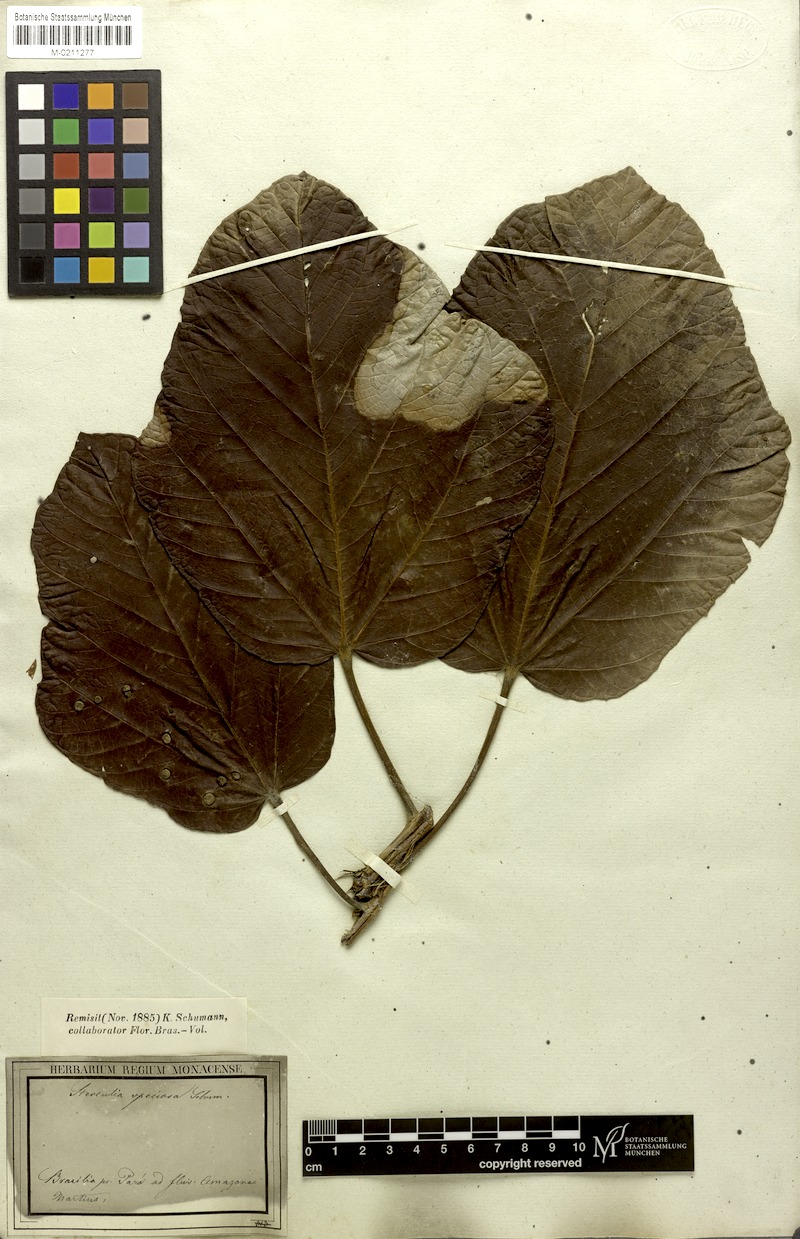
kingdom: Plantae
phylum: Tracheophyta
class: Magnoliopsida
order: Malvales
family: Malvaceae
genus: Sterculia
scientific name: Sterculia speciosa
